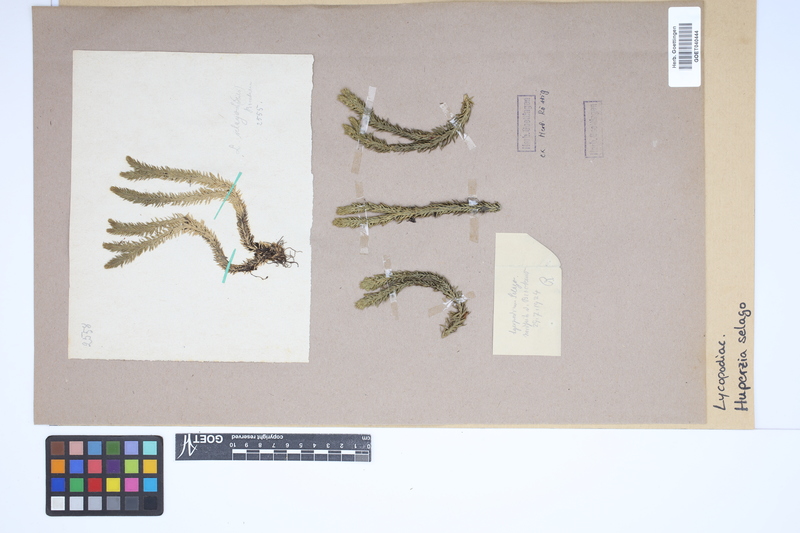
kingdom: Plantae
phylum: Tracheophyta
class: Lycopodiopsida
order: Lycopodiales
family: Lycopodiaceae
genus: Huperzia
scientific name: Huperzia selago
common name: Northern firmoss
